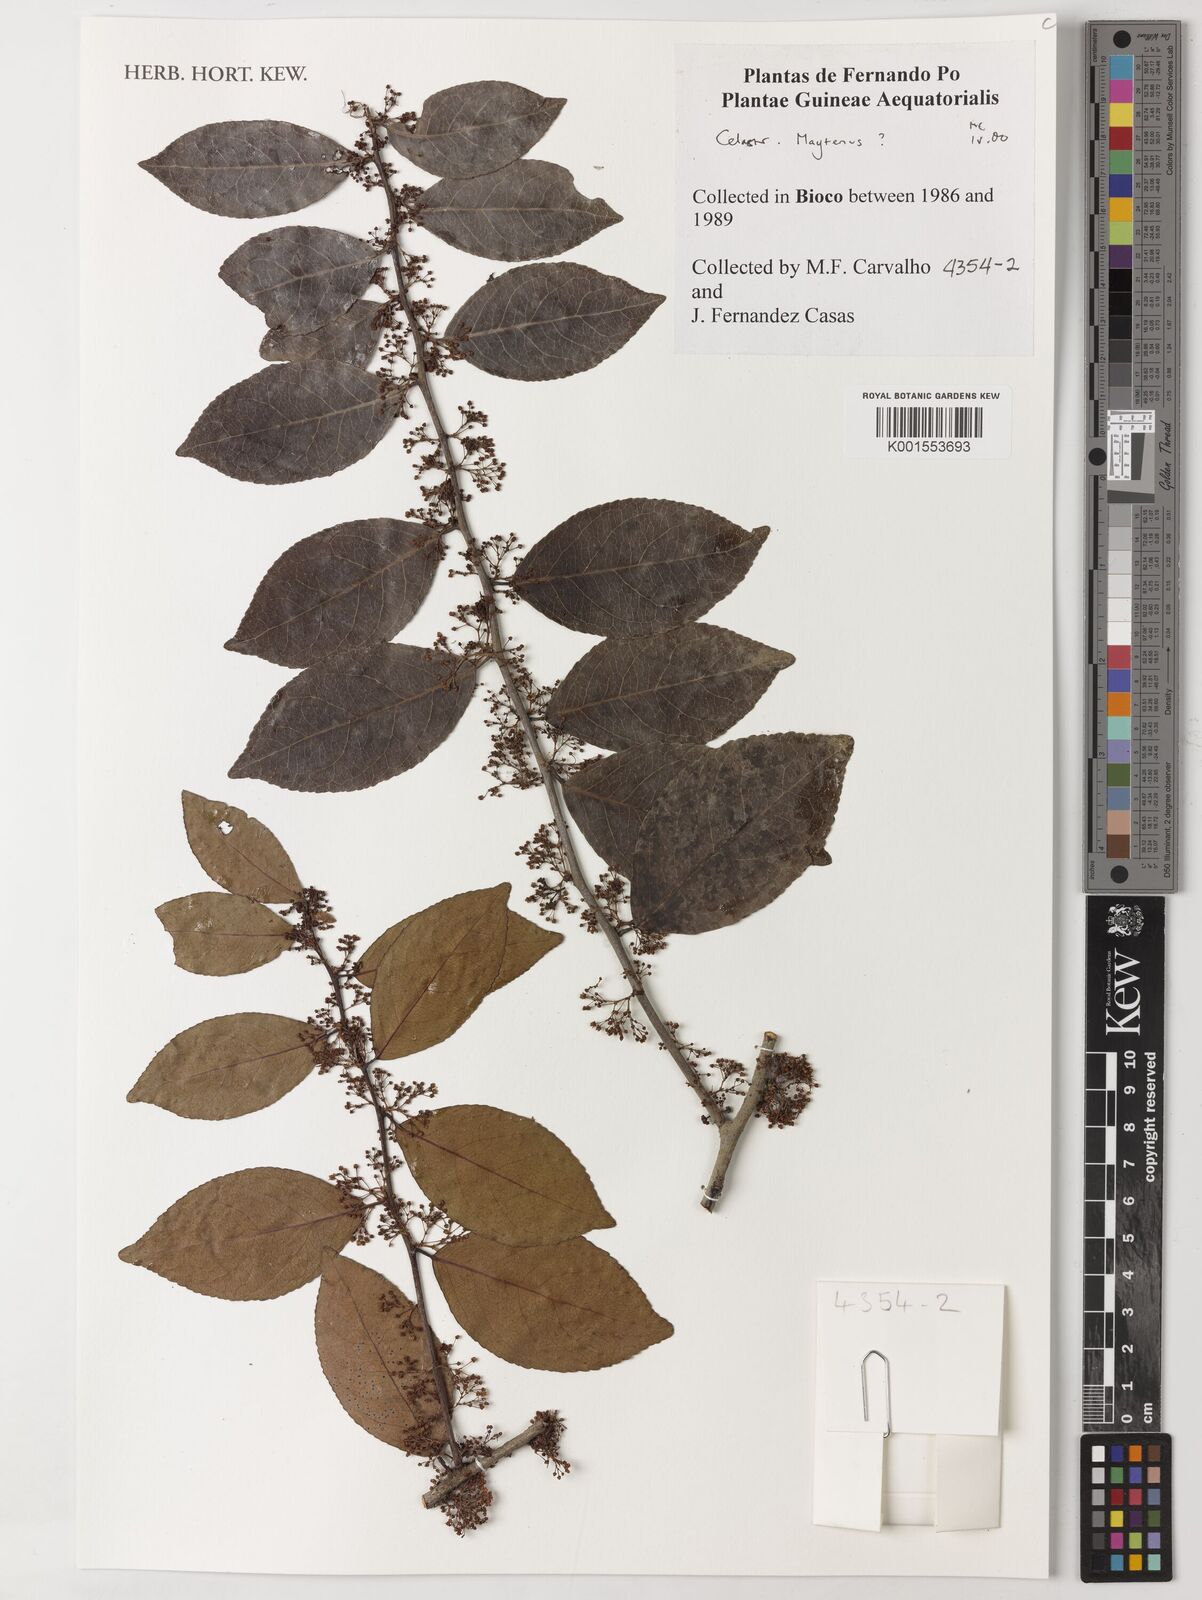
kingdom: Plantae
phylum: Tracheophyta
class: Magnoliopsida
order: Celastrales
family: Celastraceae
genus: Maytenus
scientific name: Maytenus
